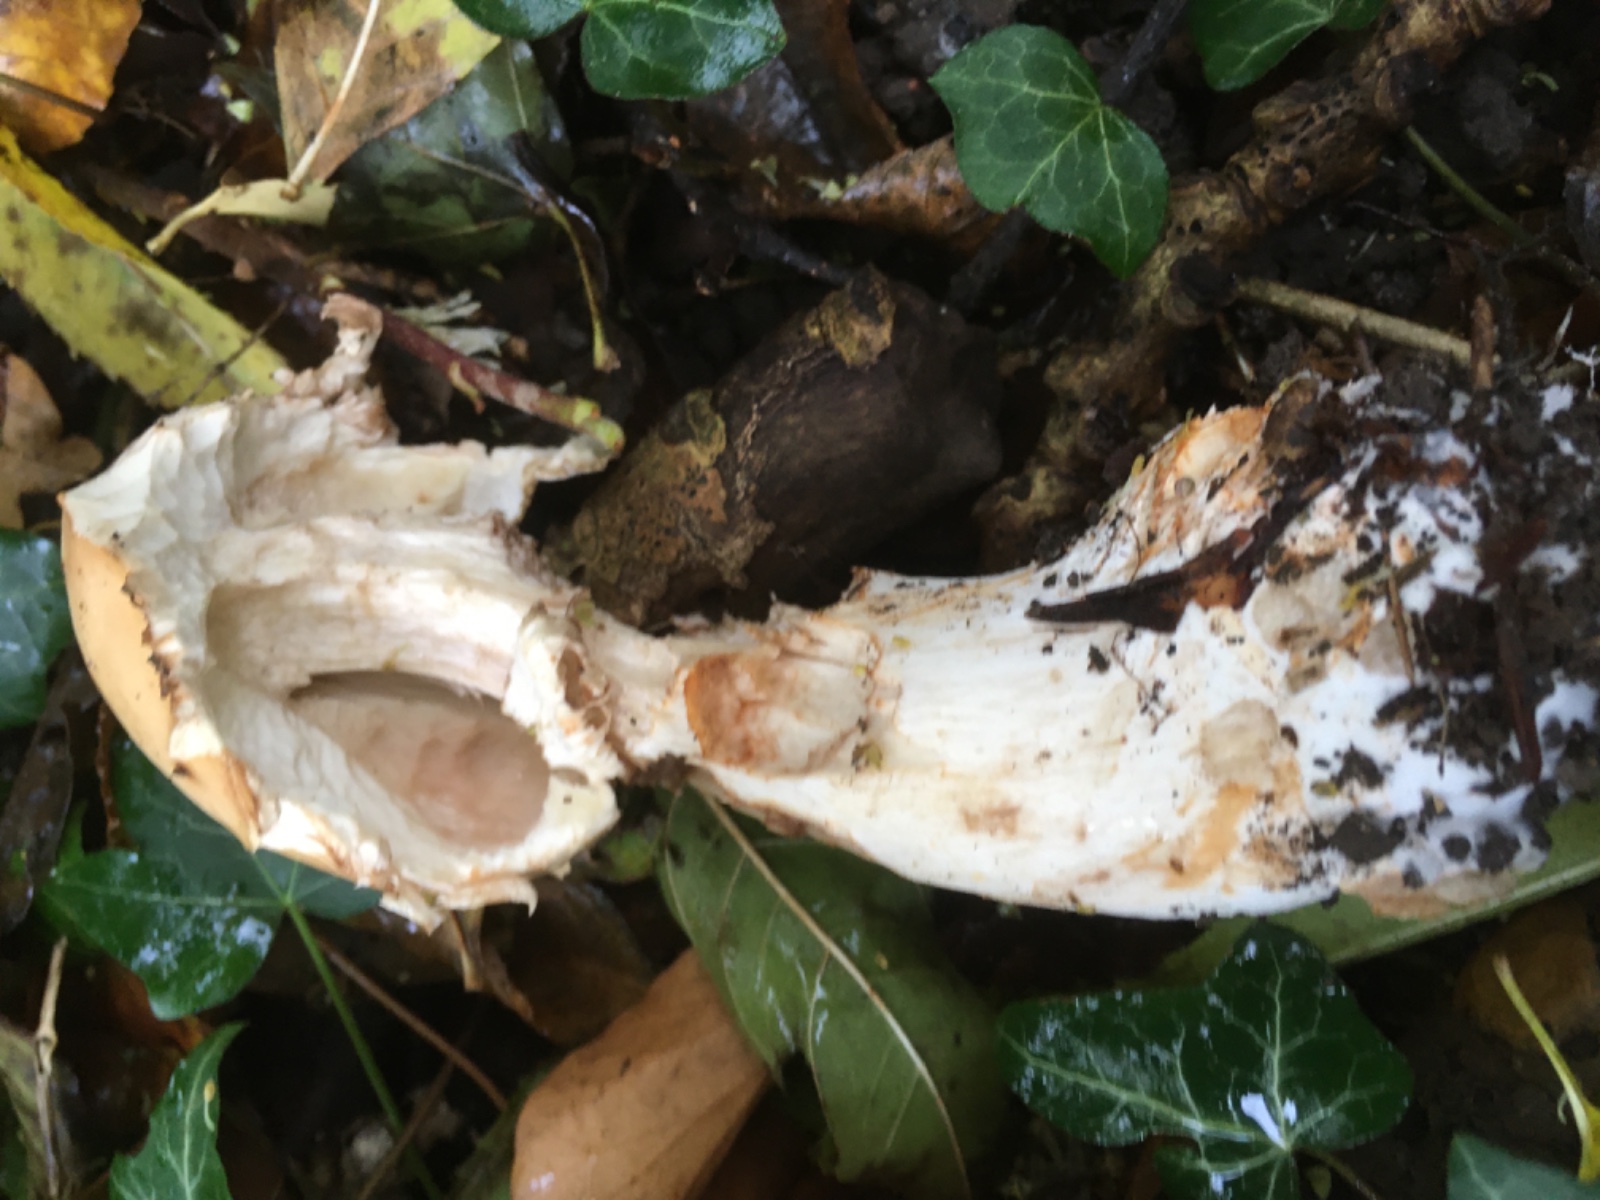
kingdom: Fungi
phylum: Basidiomycota
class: Agaricomycetes
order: Agaricales
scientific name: Agaricales
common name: champignonordenen
